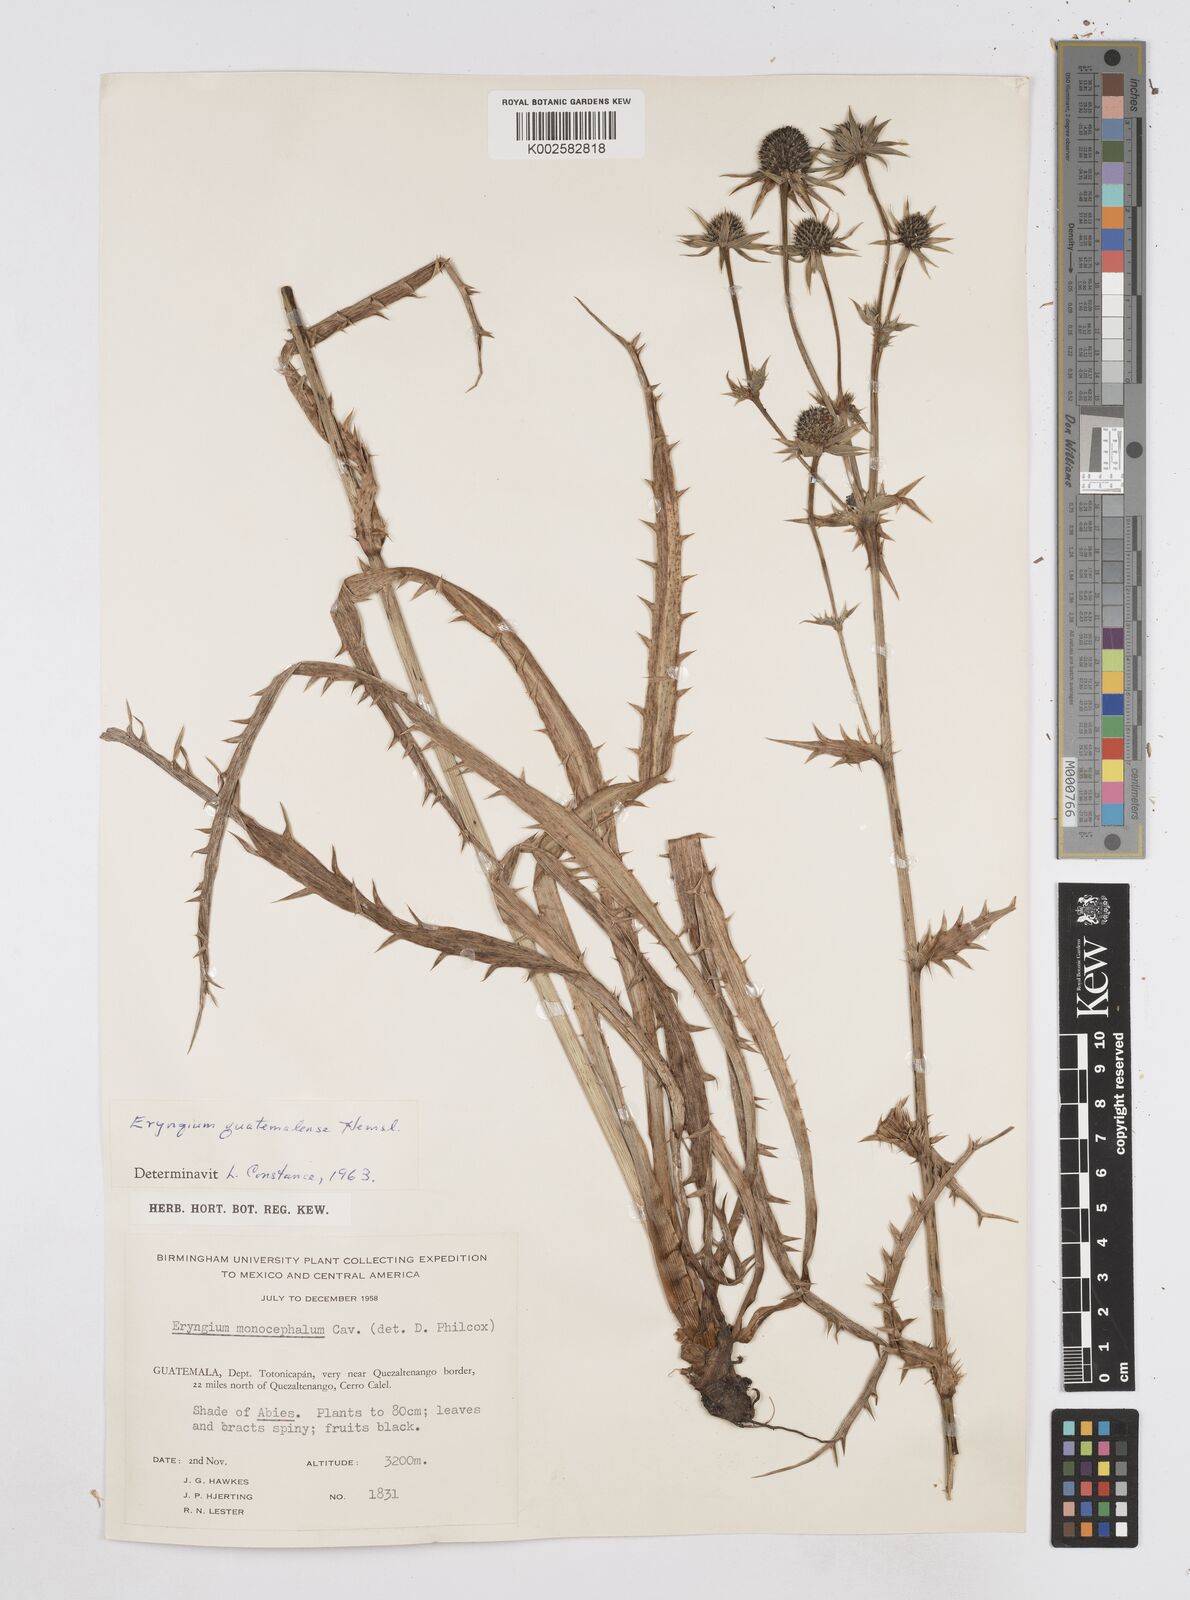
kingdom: Plantae
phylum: Tracheophyta
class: Magnoliopsida
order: Apiales
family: Apiaceae
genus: Eryngium
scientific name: Eryngium guatemalense
